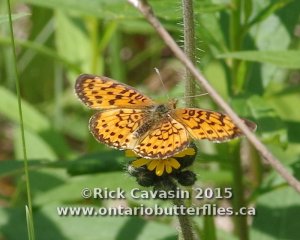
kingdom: Animalia
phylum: Arthropoda
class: Insecta
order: Lepidoptera
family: Nymphalidae
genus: Boloria
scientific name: Boloria selene
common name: Silver-bordered Fritillary
